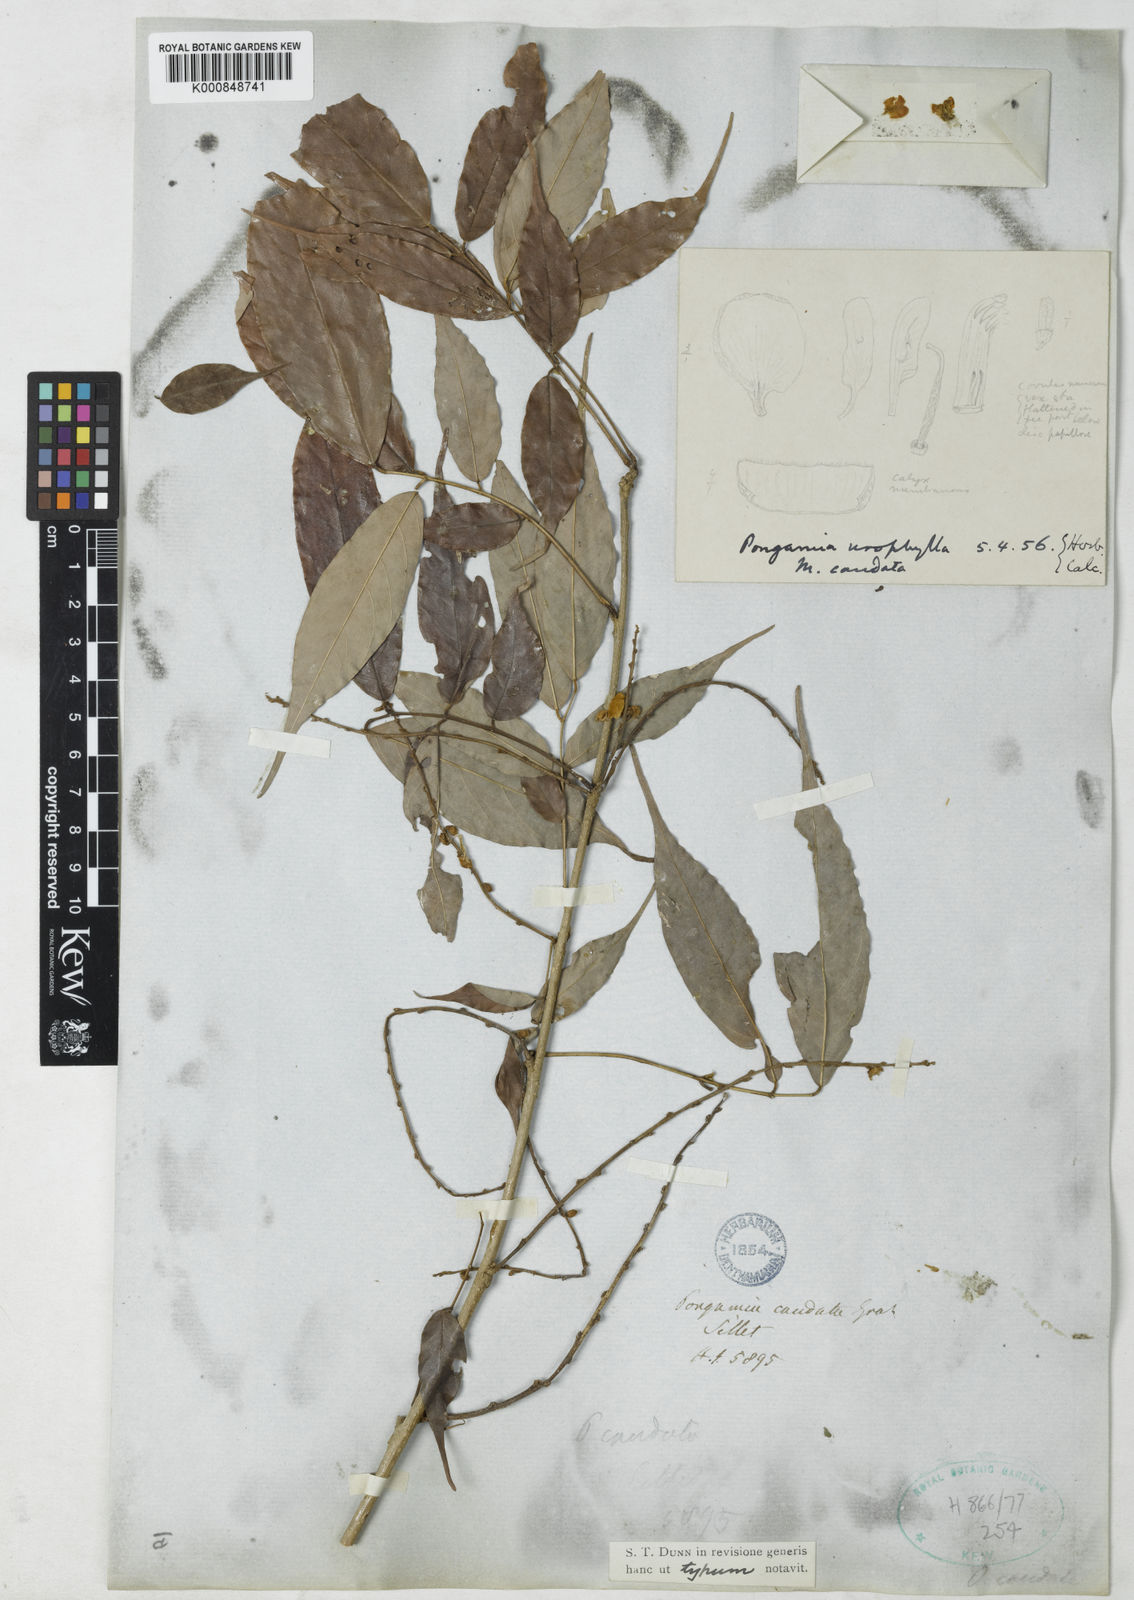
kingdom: Plantae
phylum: Tracheophyta
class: Magnoliopsida
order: Fabales
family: Fabaceae
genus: Millettia
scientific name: Millettia caudata
